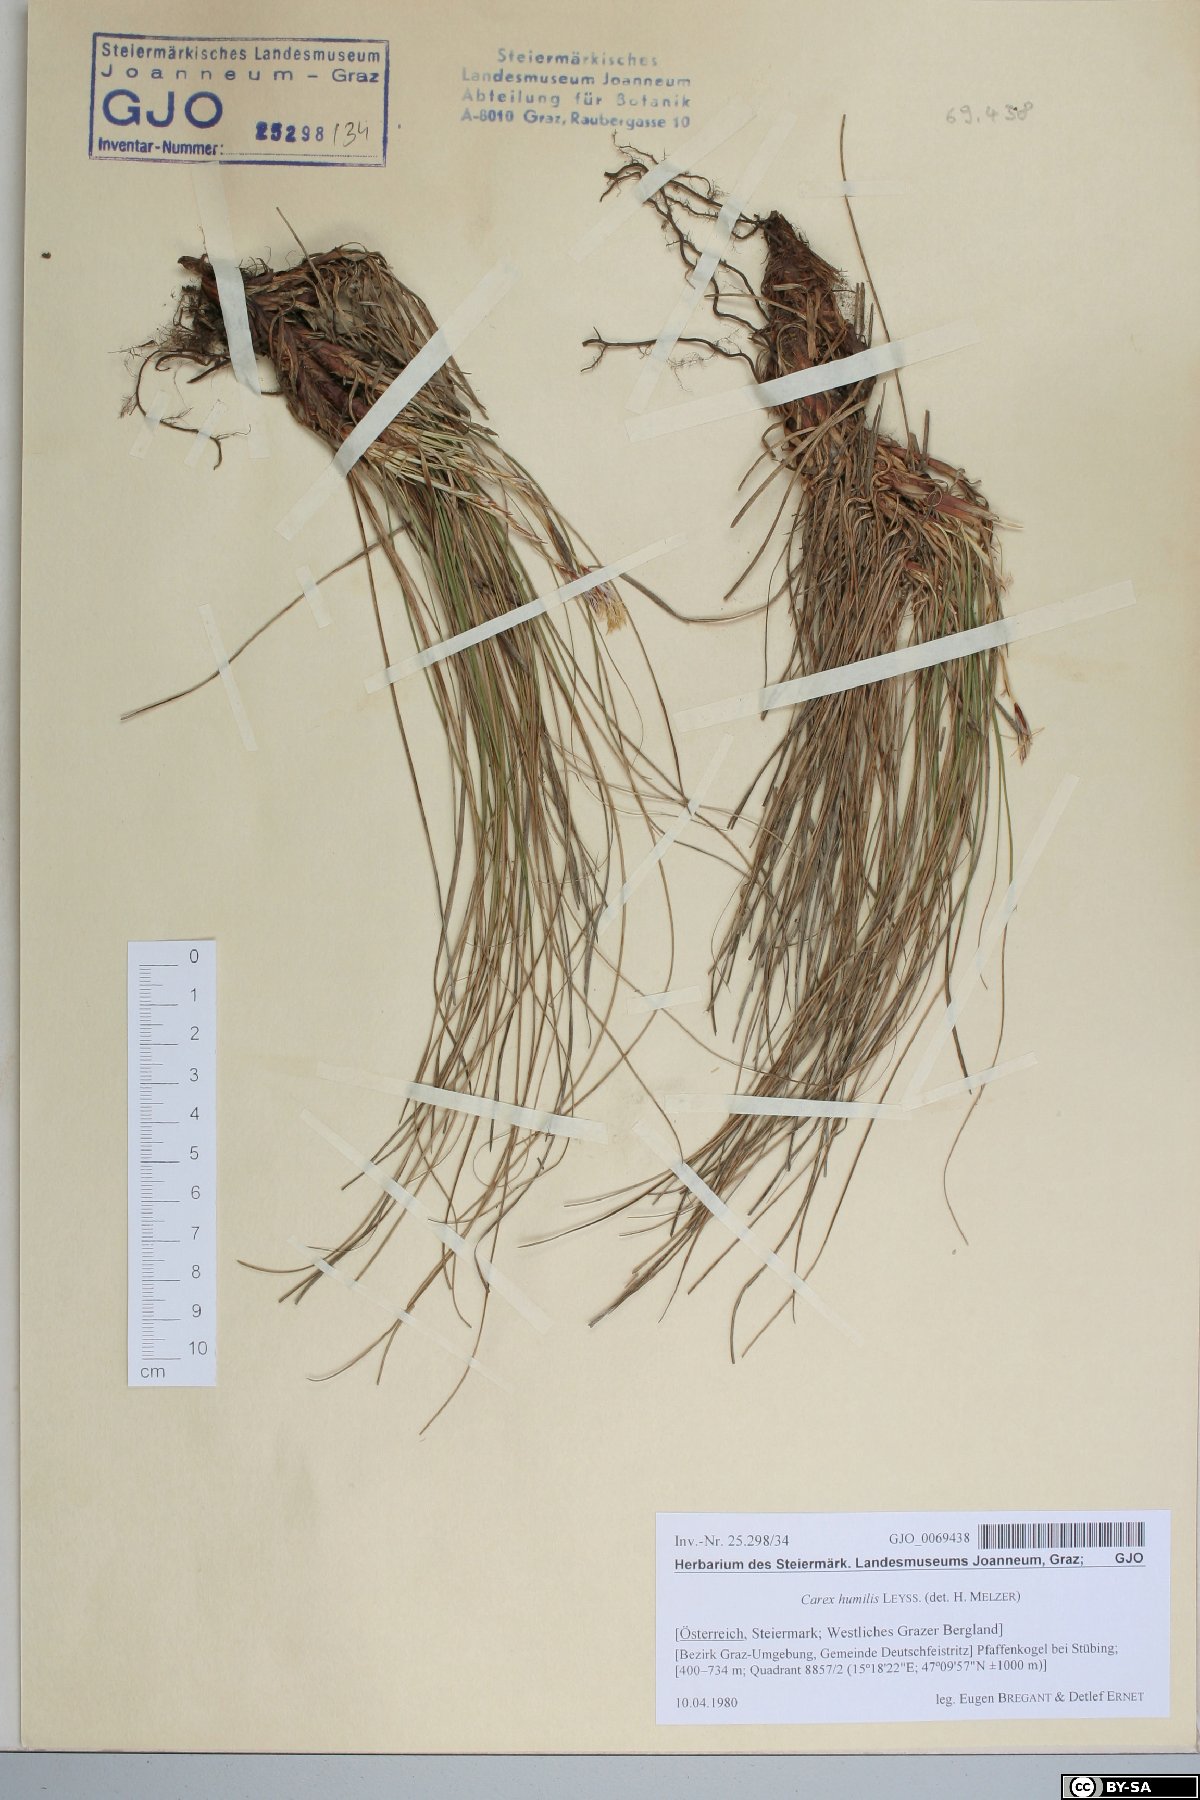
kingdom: Plantae
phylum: Tracheophyta
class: Liliopsida
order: Poales
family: Cyperaceae
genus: Carex
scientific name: Carex humilis
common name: Dwarf sedge
